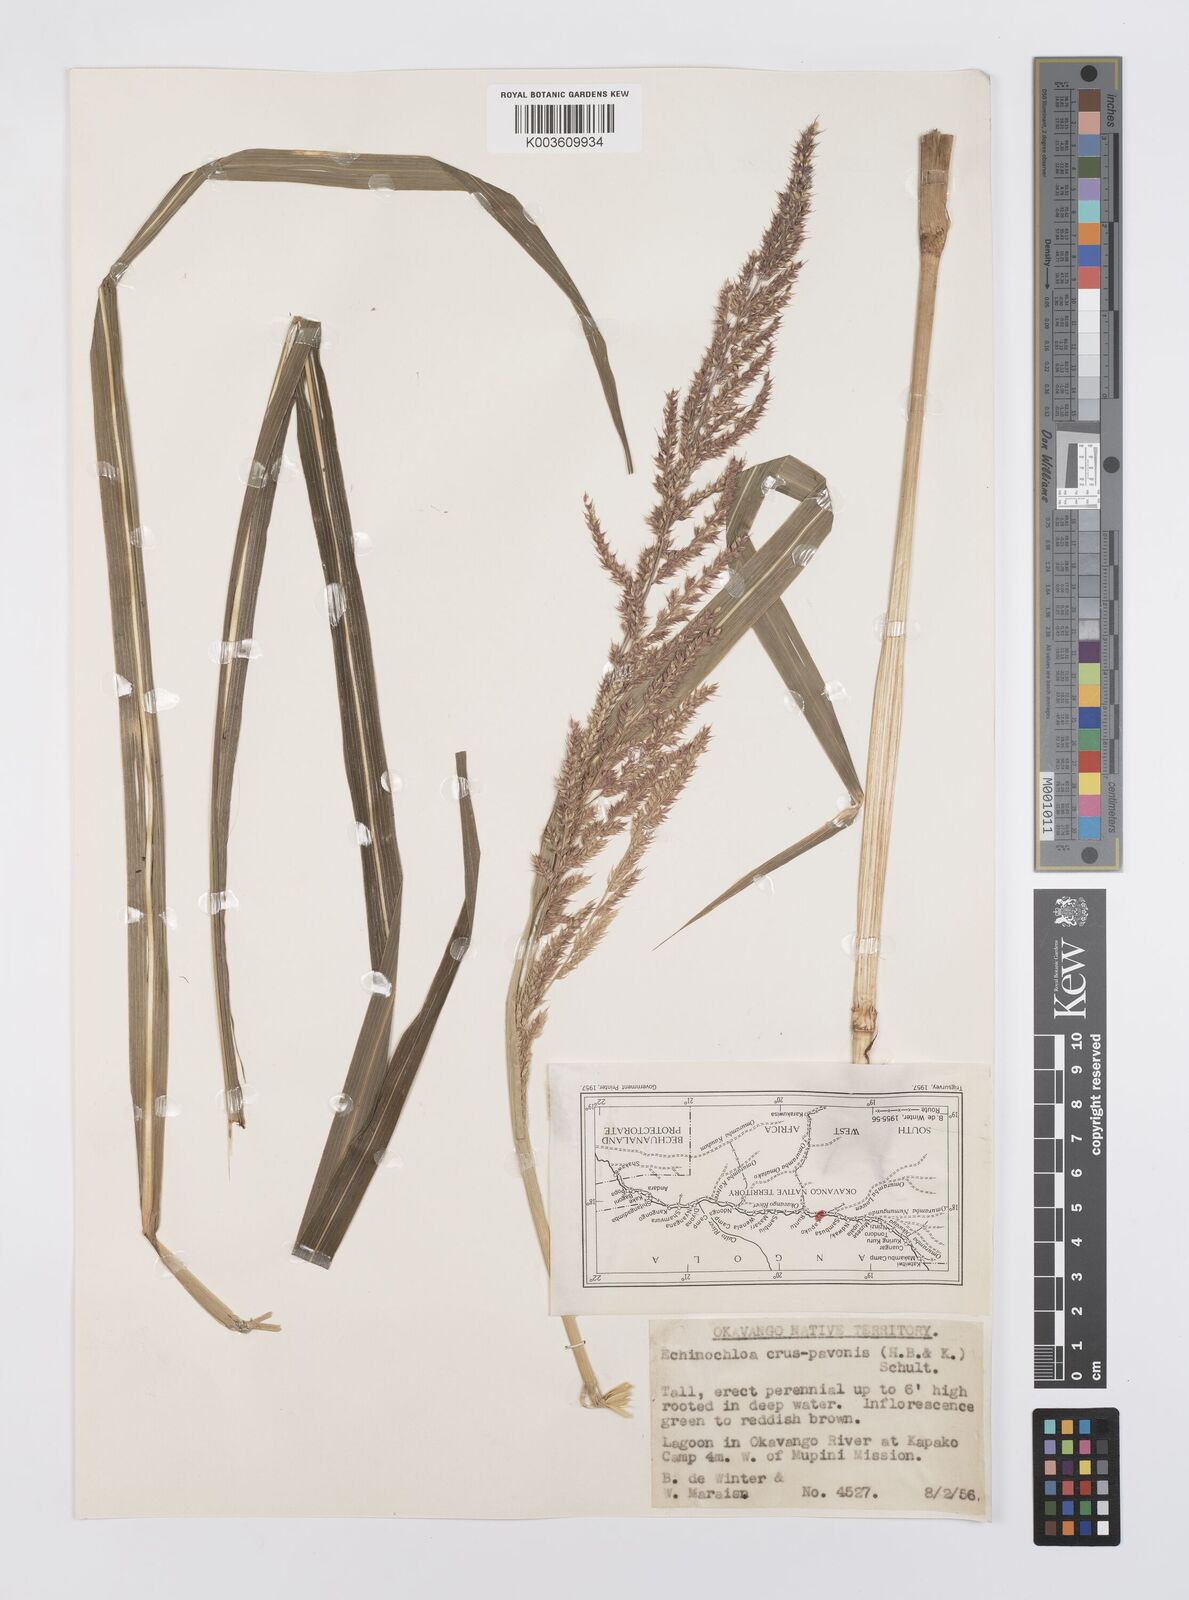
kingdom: Plantae
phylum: Tracheophyta
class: Liliopsida
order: Poales
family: Poaceae
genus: Echinochloa
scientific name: Echinochloa crus-pavonis
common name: Gulf cockspur grass
